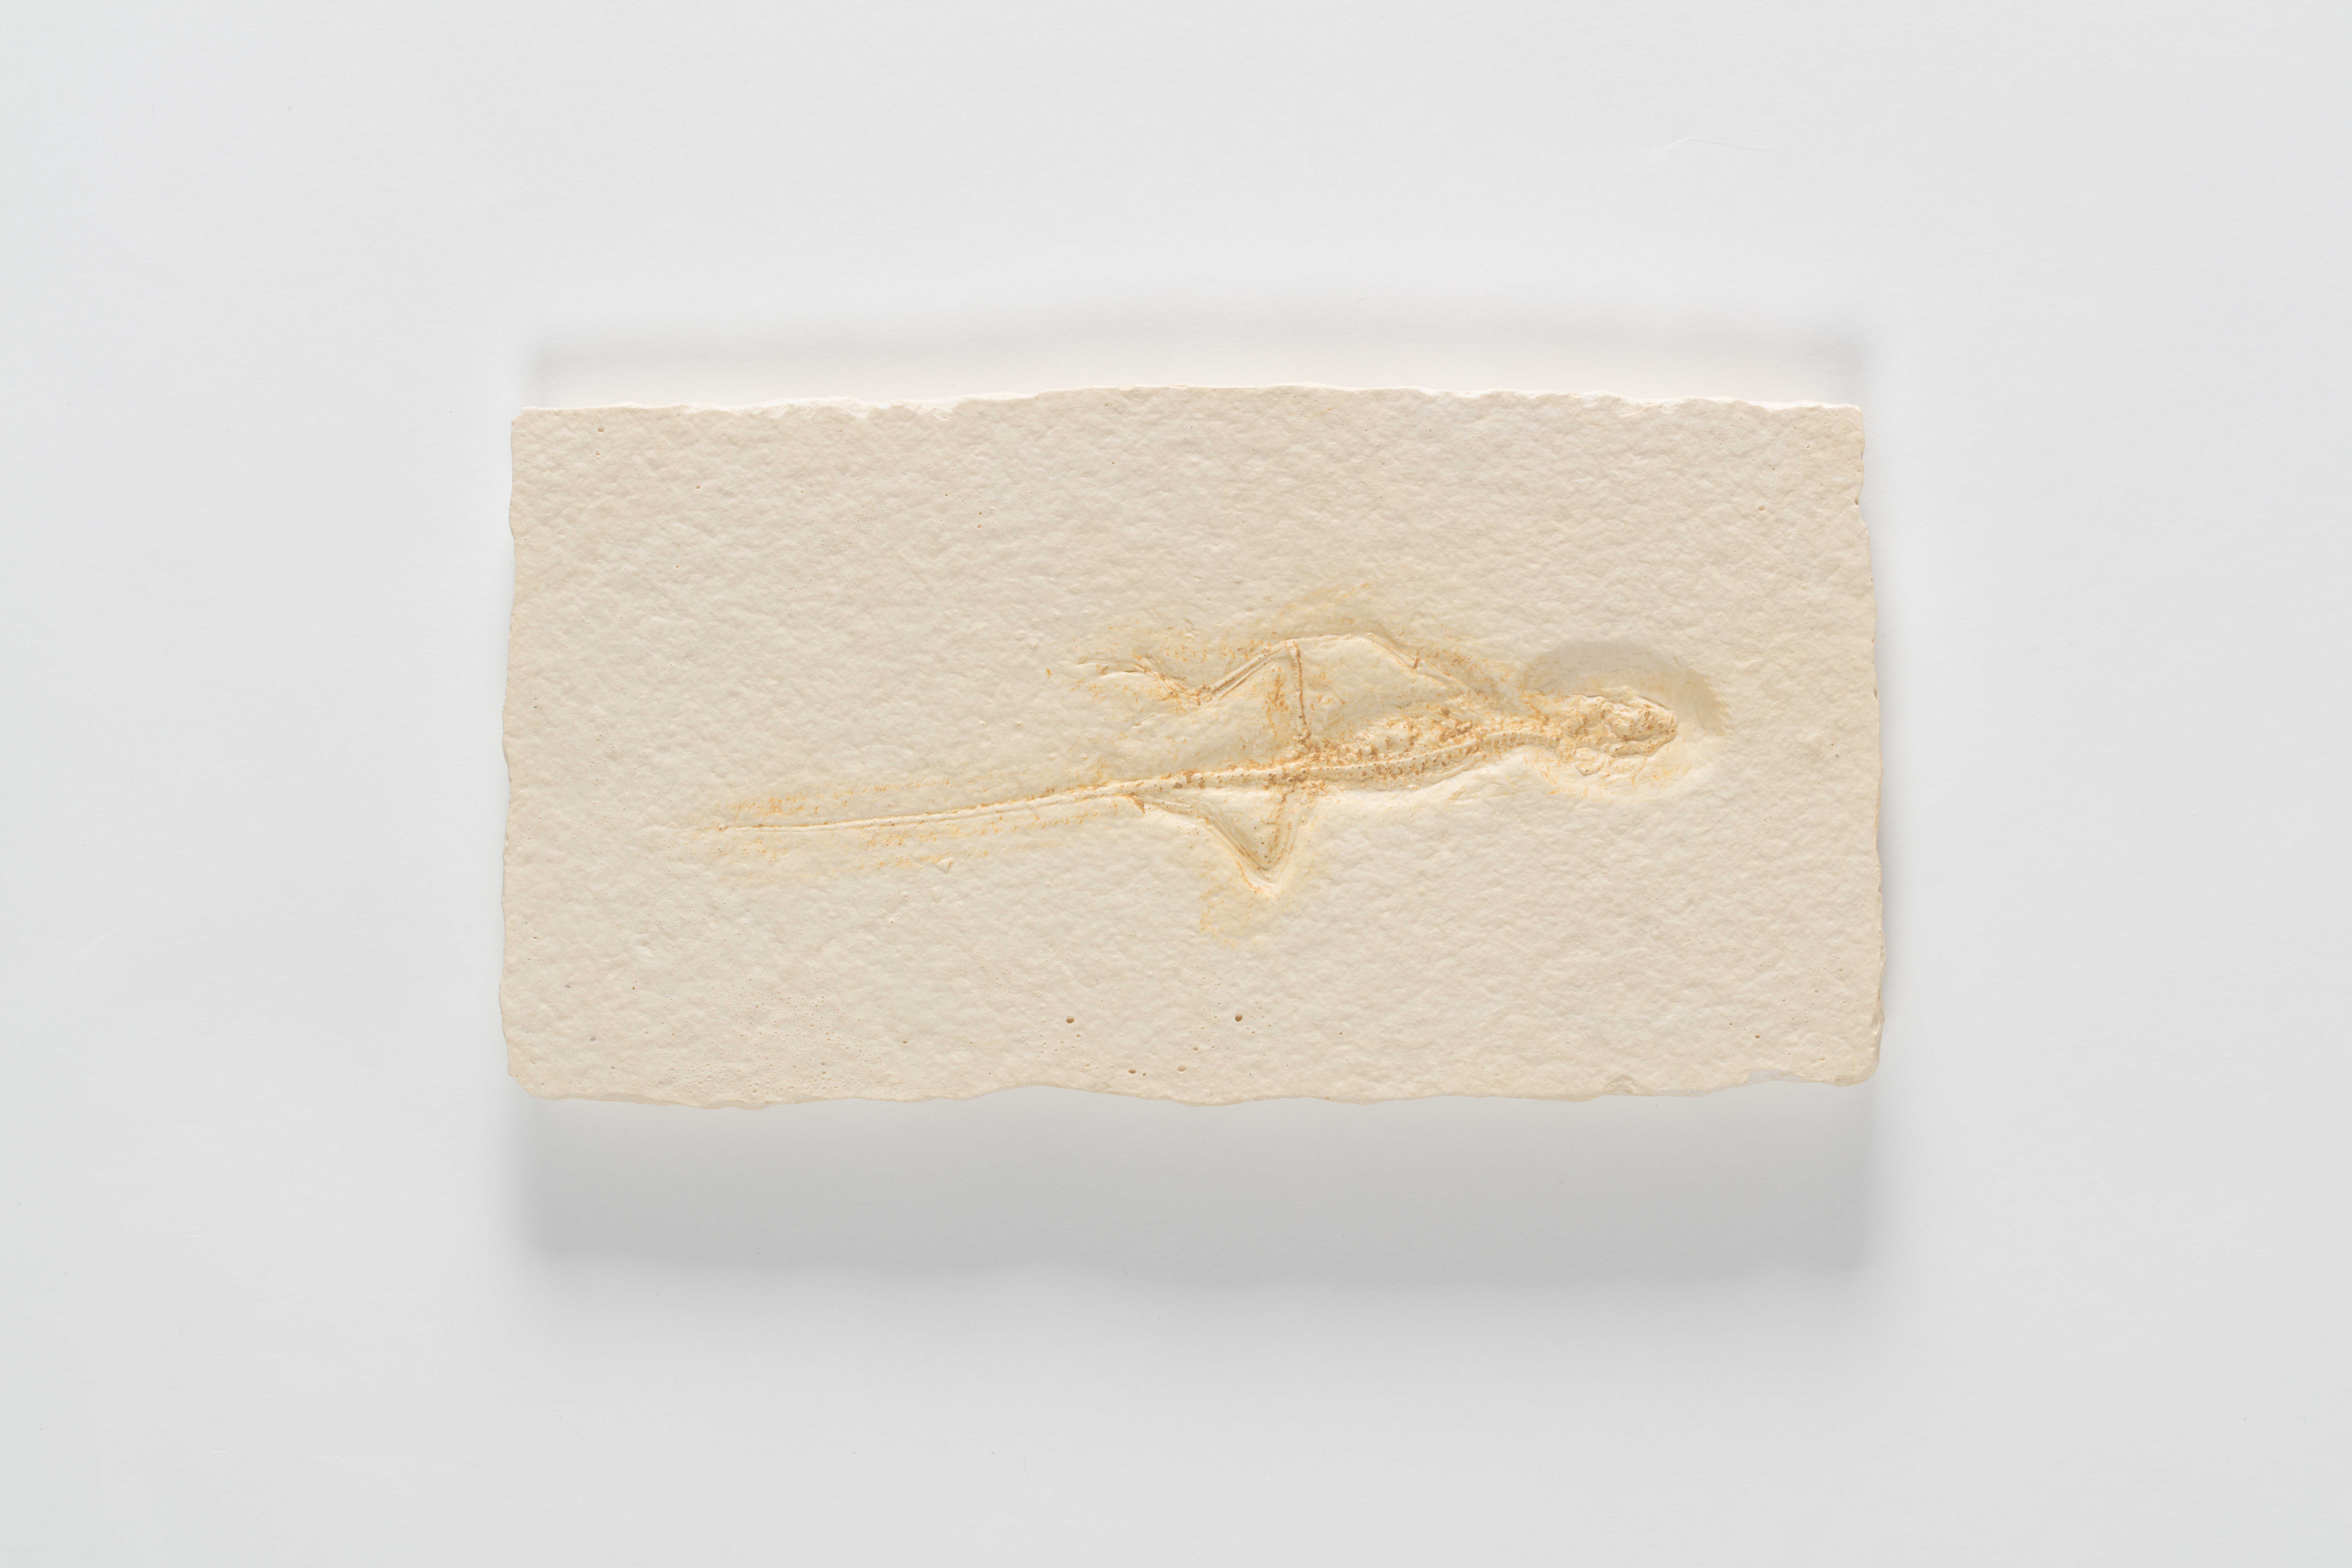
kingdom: Animalia
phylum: Chordata
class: Sphenodontia
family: Sphenodontidae
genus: Homoeosaurus
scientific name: Homoeosaurus
